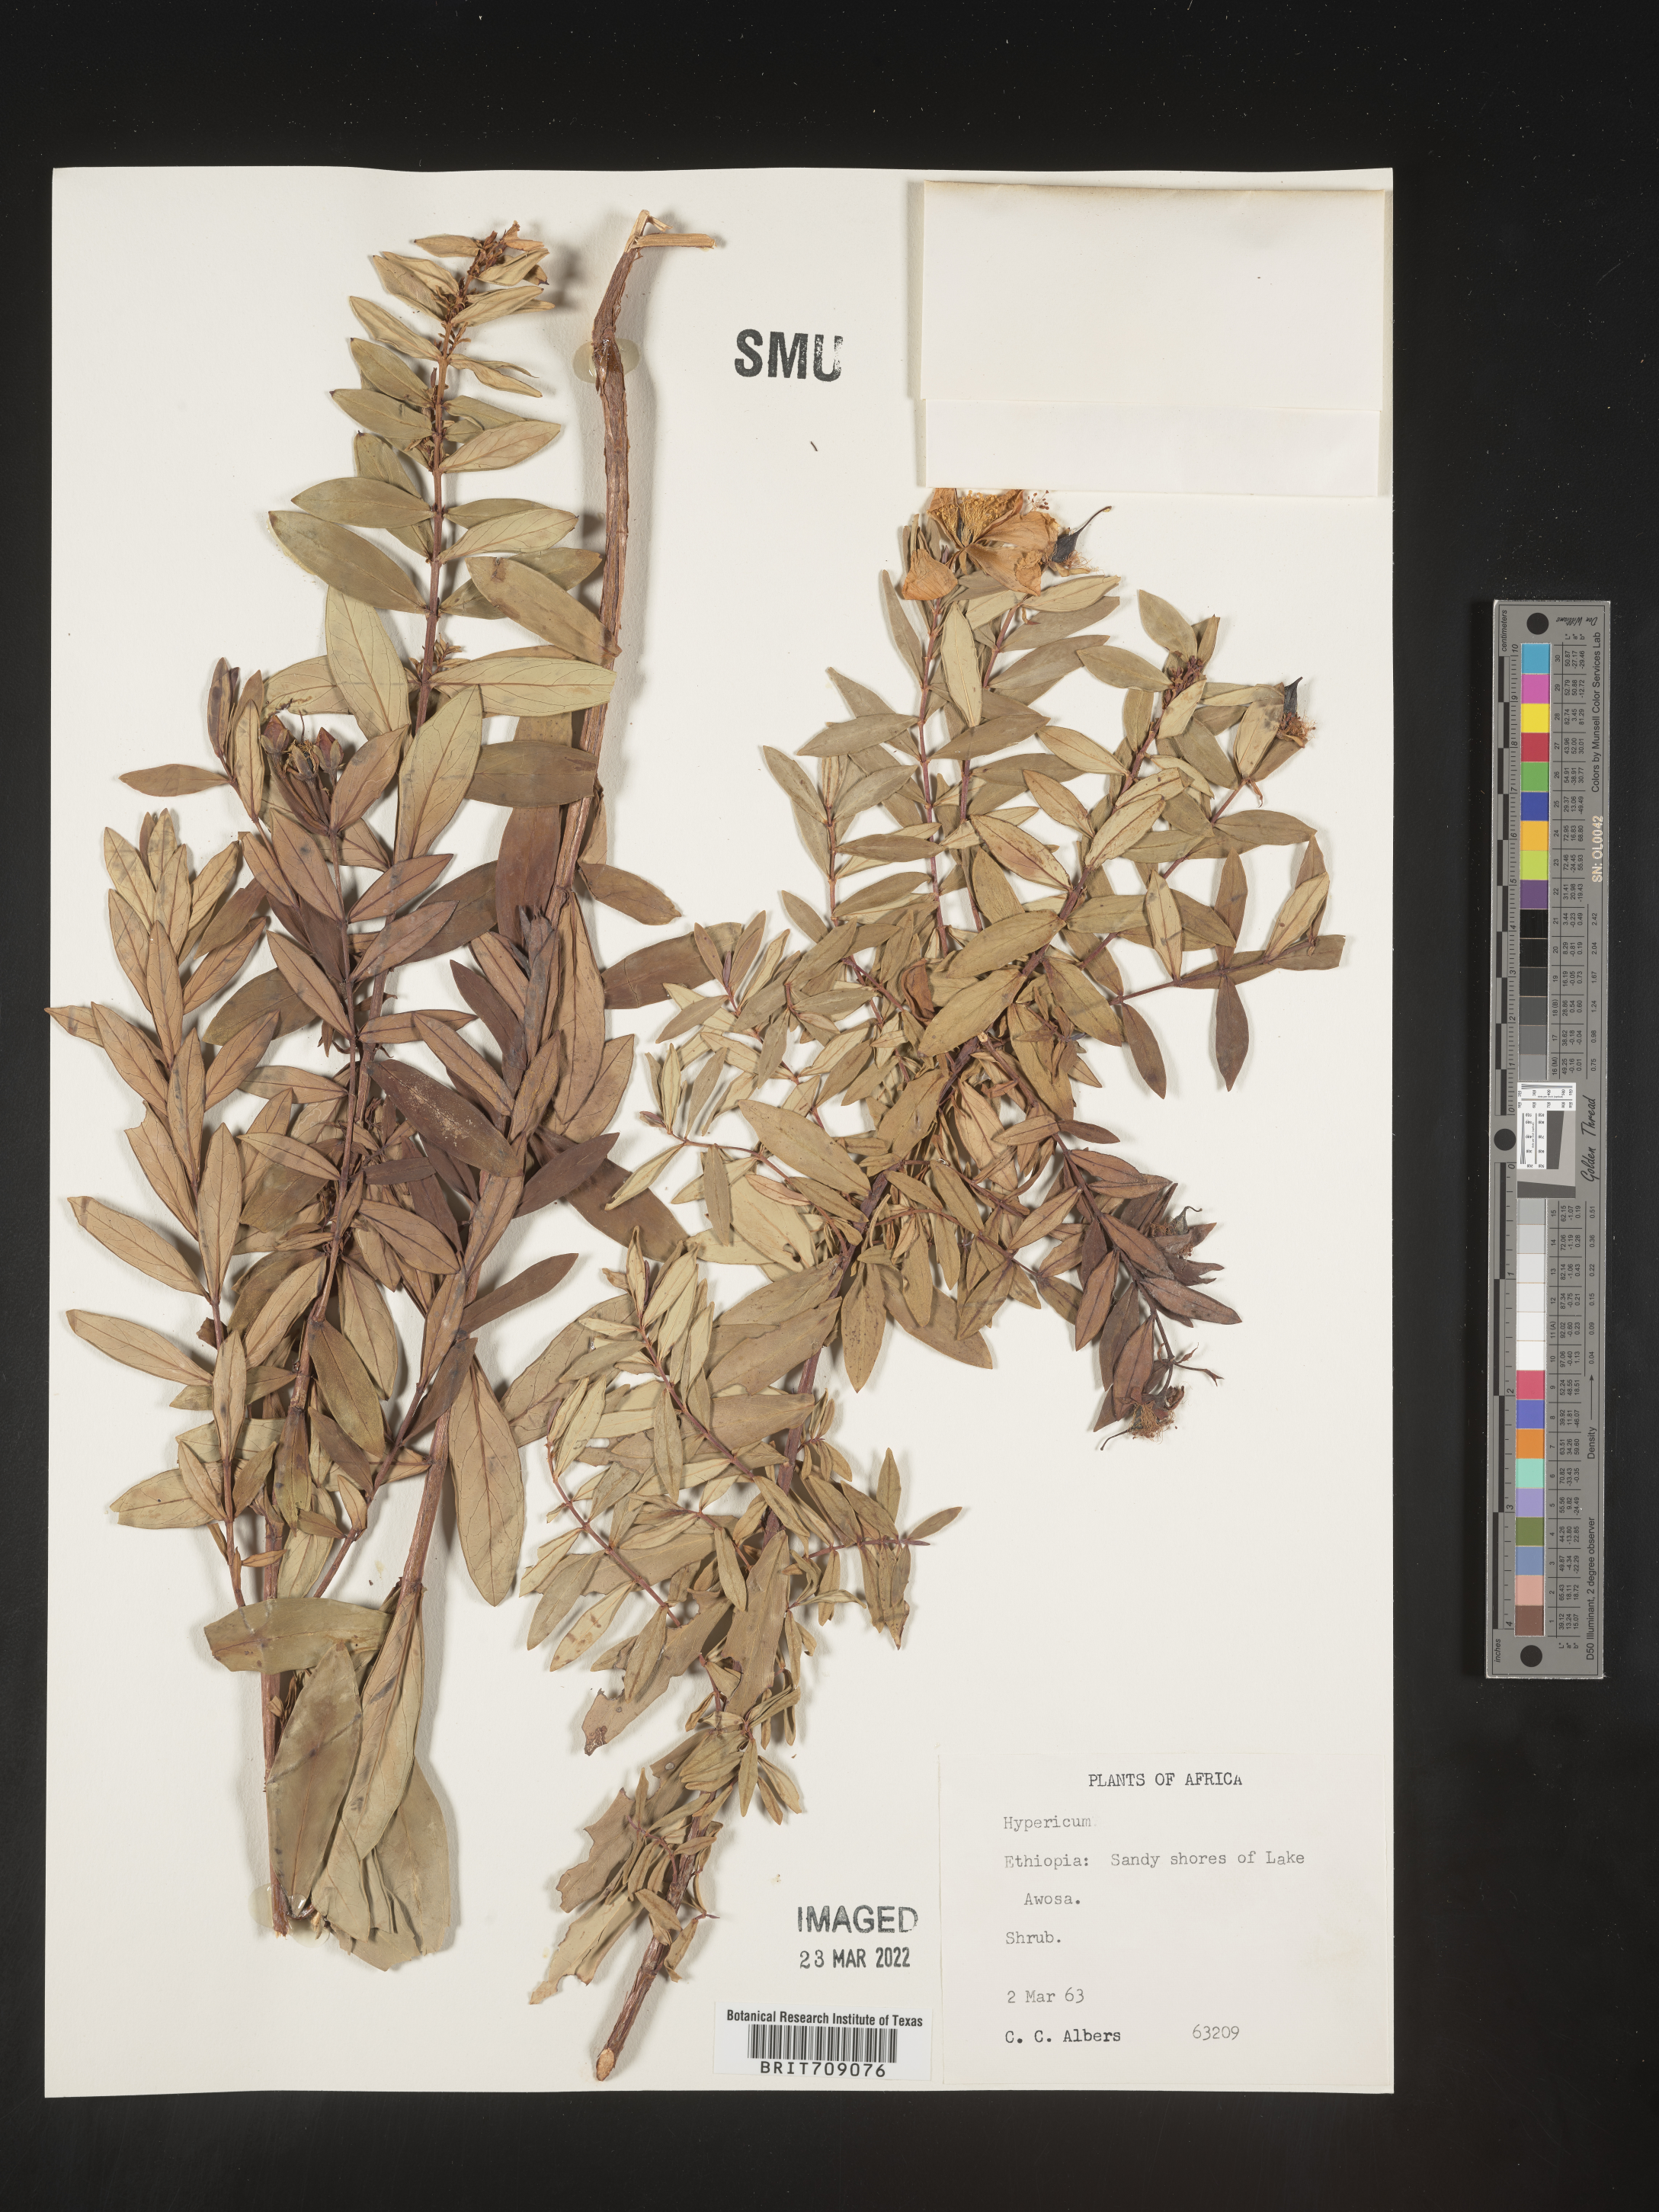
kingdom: Plantae
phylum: Tracheophyta
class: Magnoliopsida
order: Malpighiales
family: Hypericaceae
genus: Hypericum
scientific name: Hypericum
